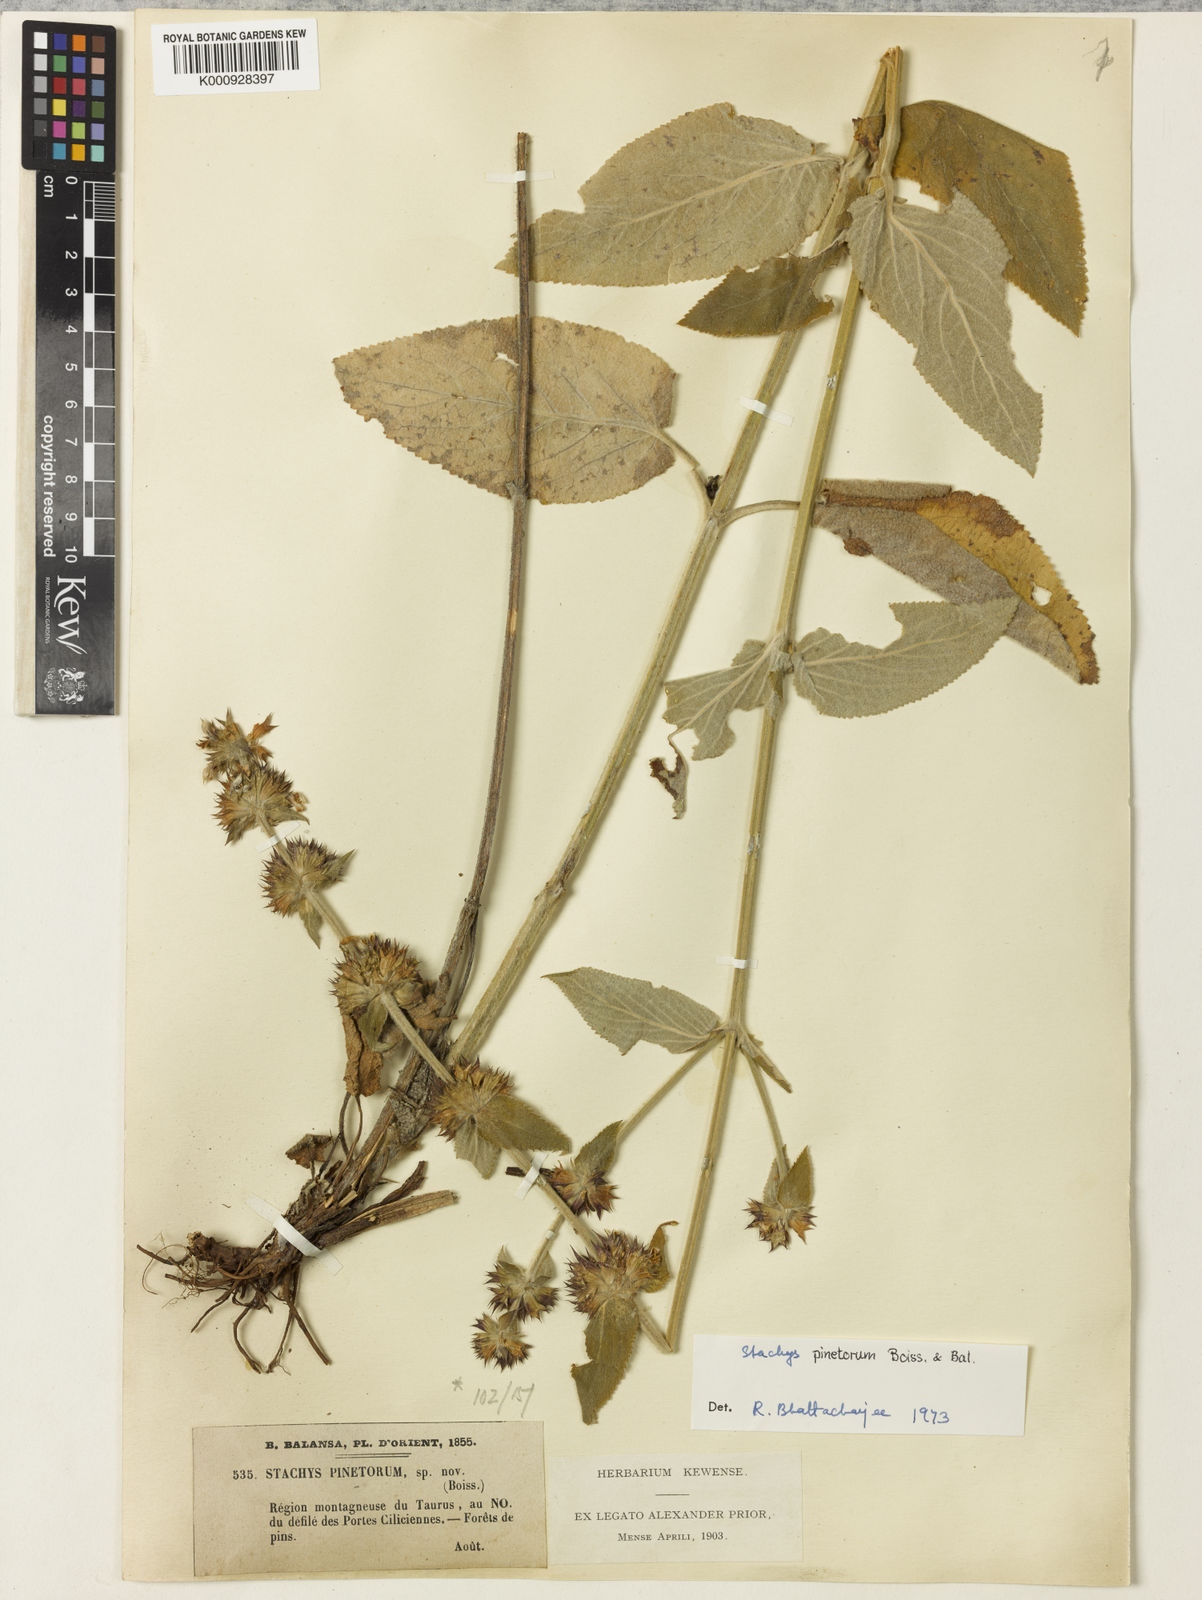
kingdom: Plantae
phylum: Tracheophyta
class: Magnoliopsida
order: Lamiales
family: Lamiaceae
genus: Stachys
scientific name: Stachys pinetorum
